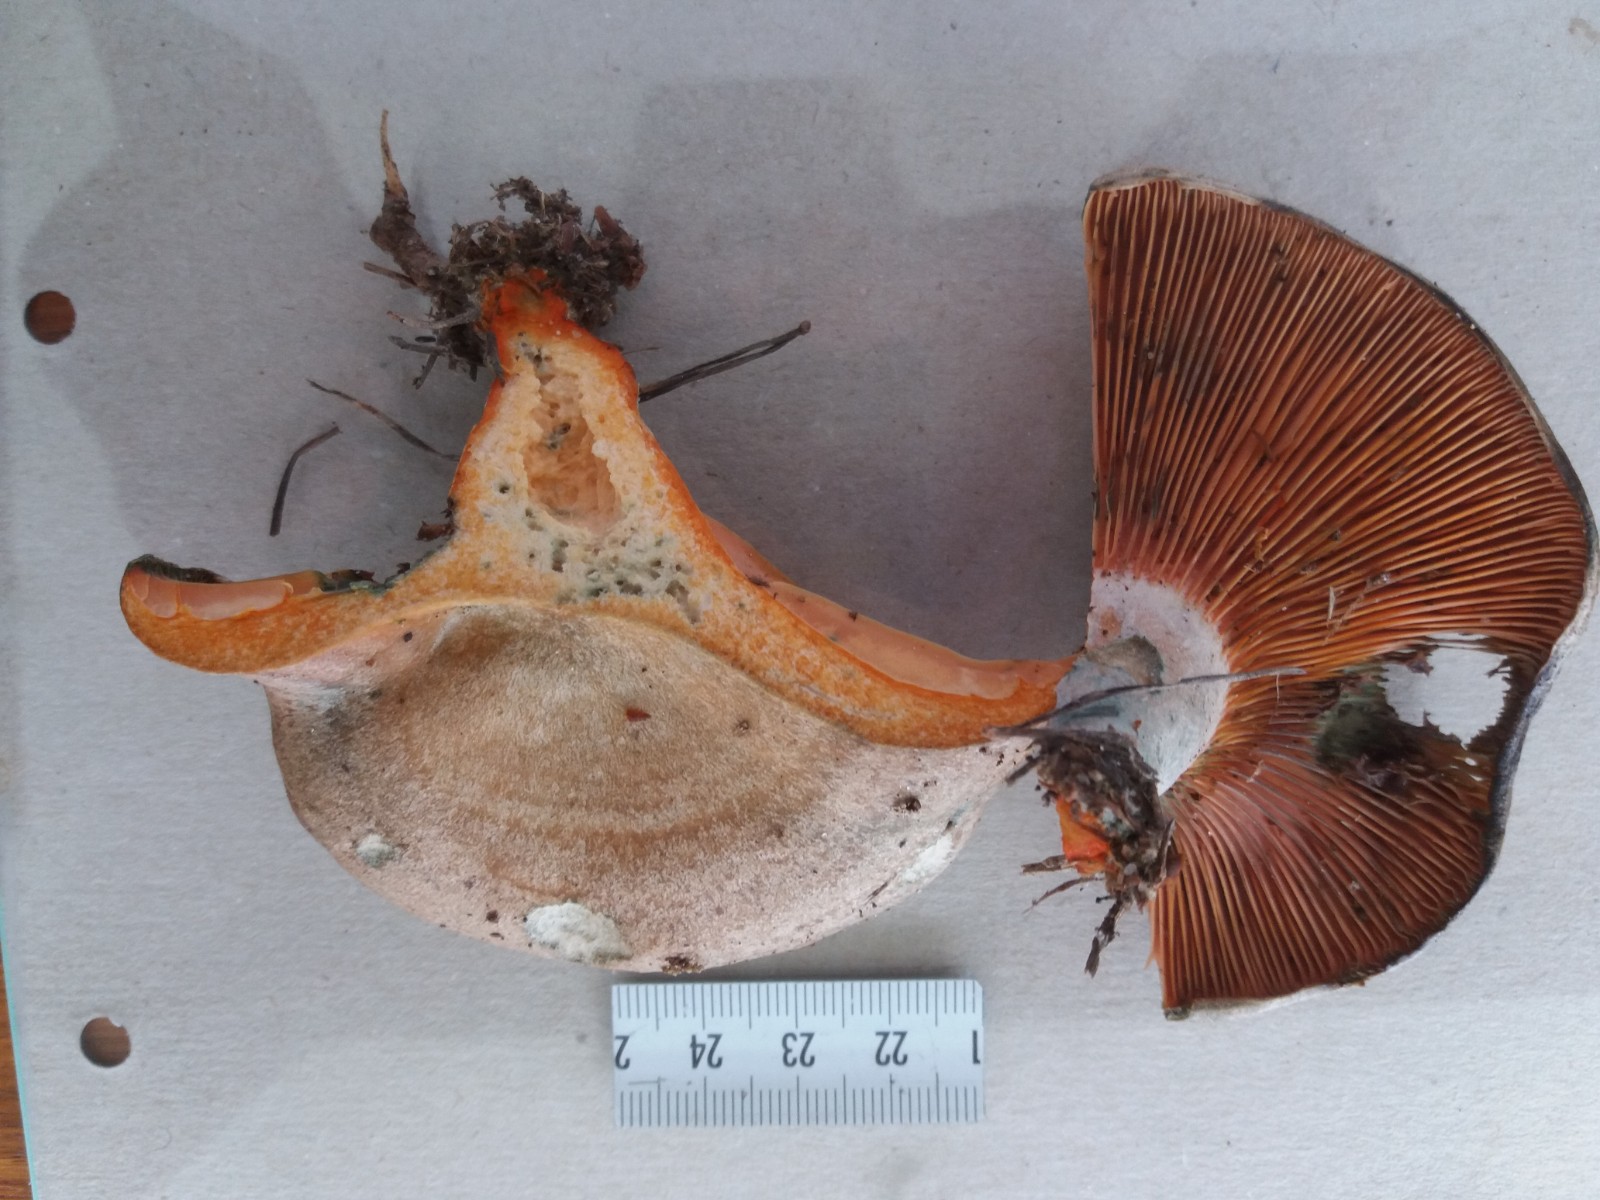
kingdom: Fungi
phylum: Basidiomycota
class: Agaricomycetes
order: Russulales
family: Russulaceae
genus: Lactarius
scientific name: Lactarius quieticolor
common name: tvefarvet mælkehat
